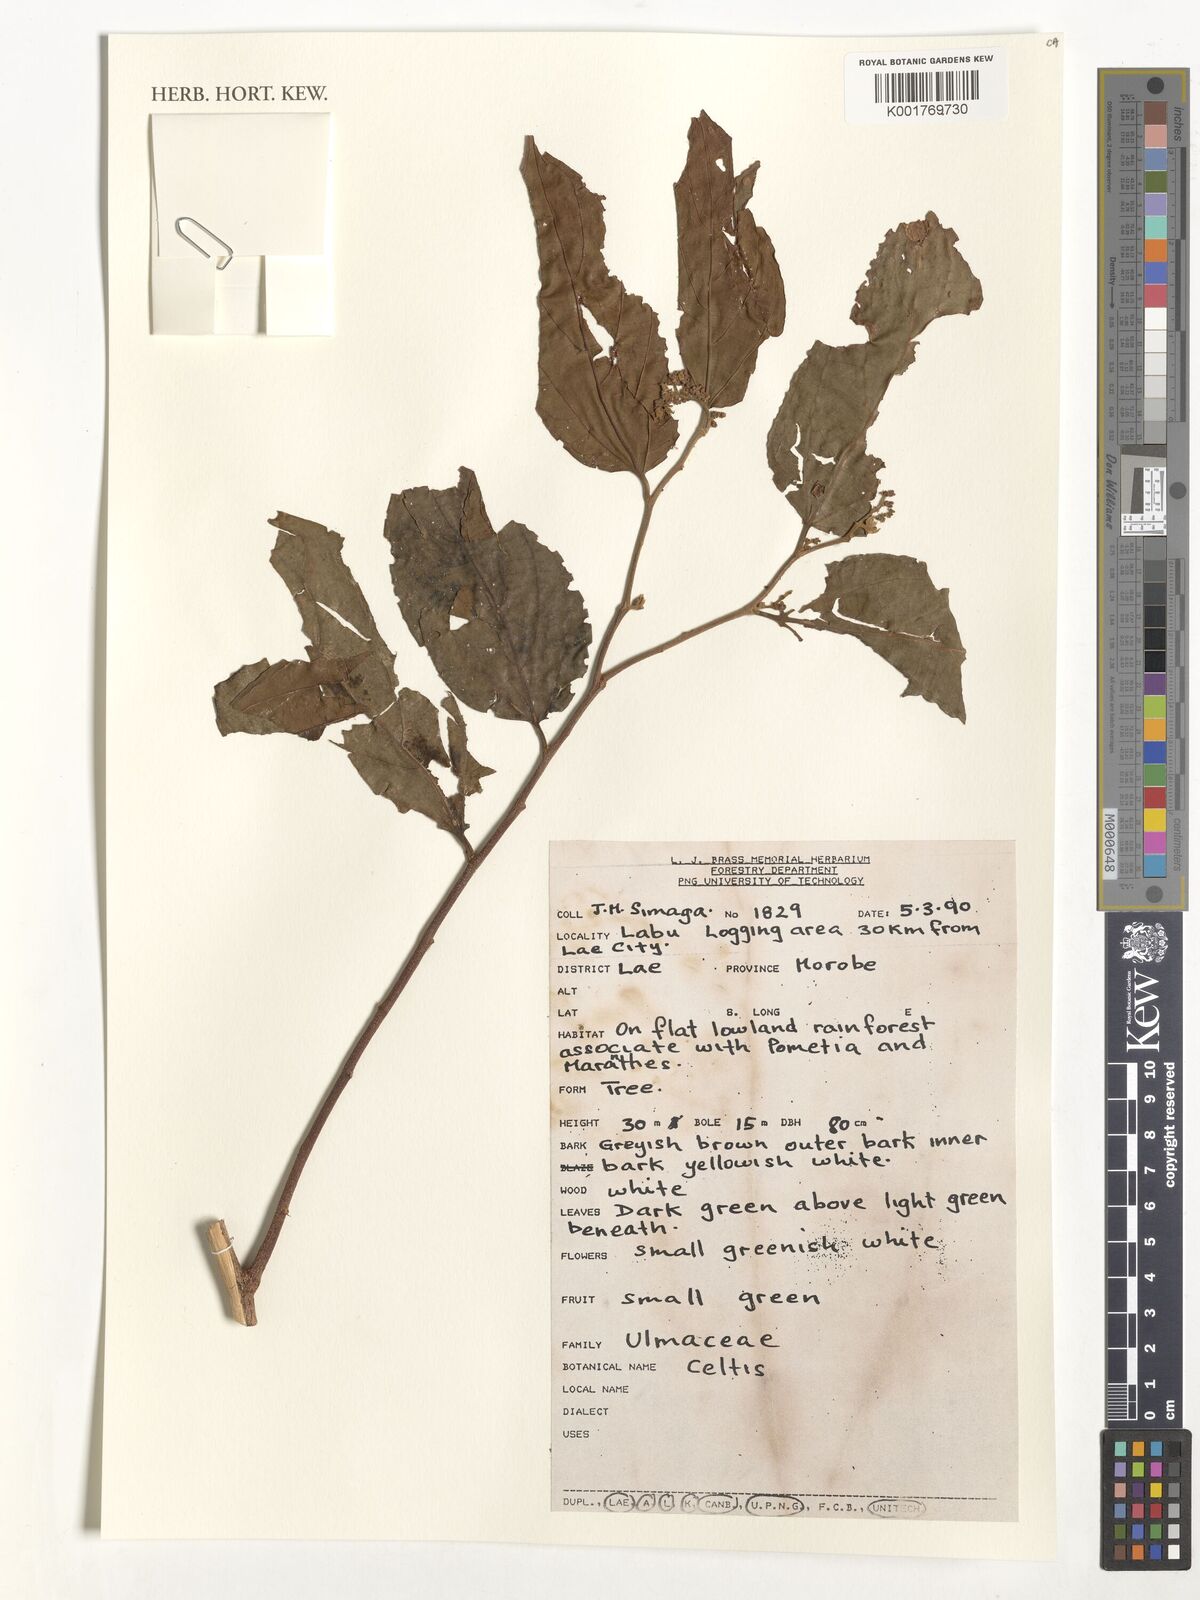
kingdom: Plantae
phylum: Tracheophyta
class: Magnoliopsida
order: Rosales
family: Cannabaceae
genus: Celtis
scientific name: Celtis
